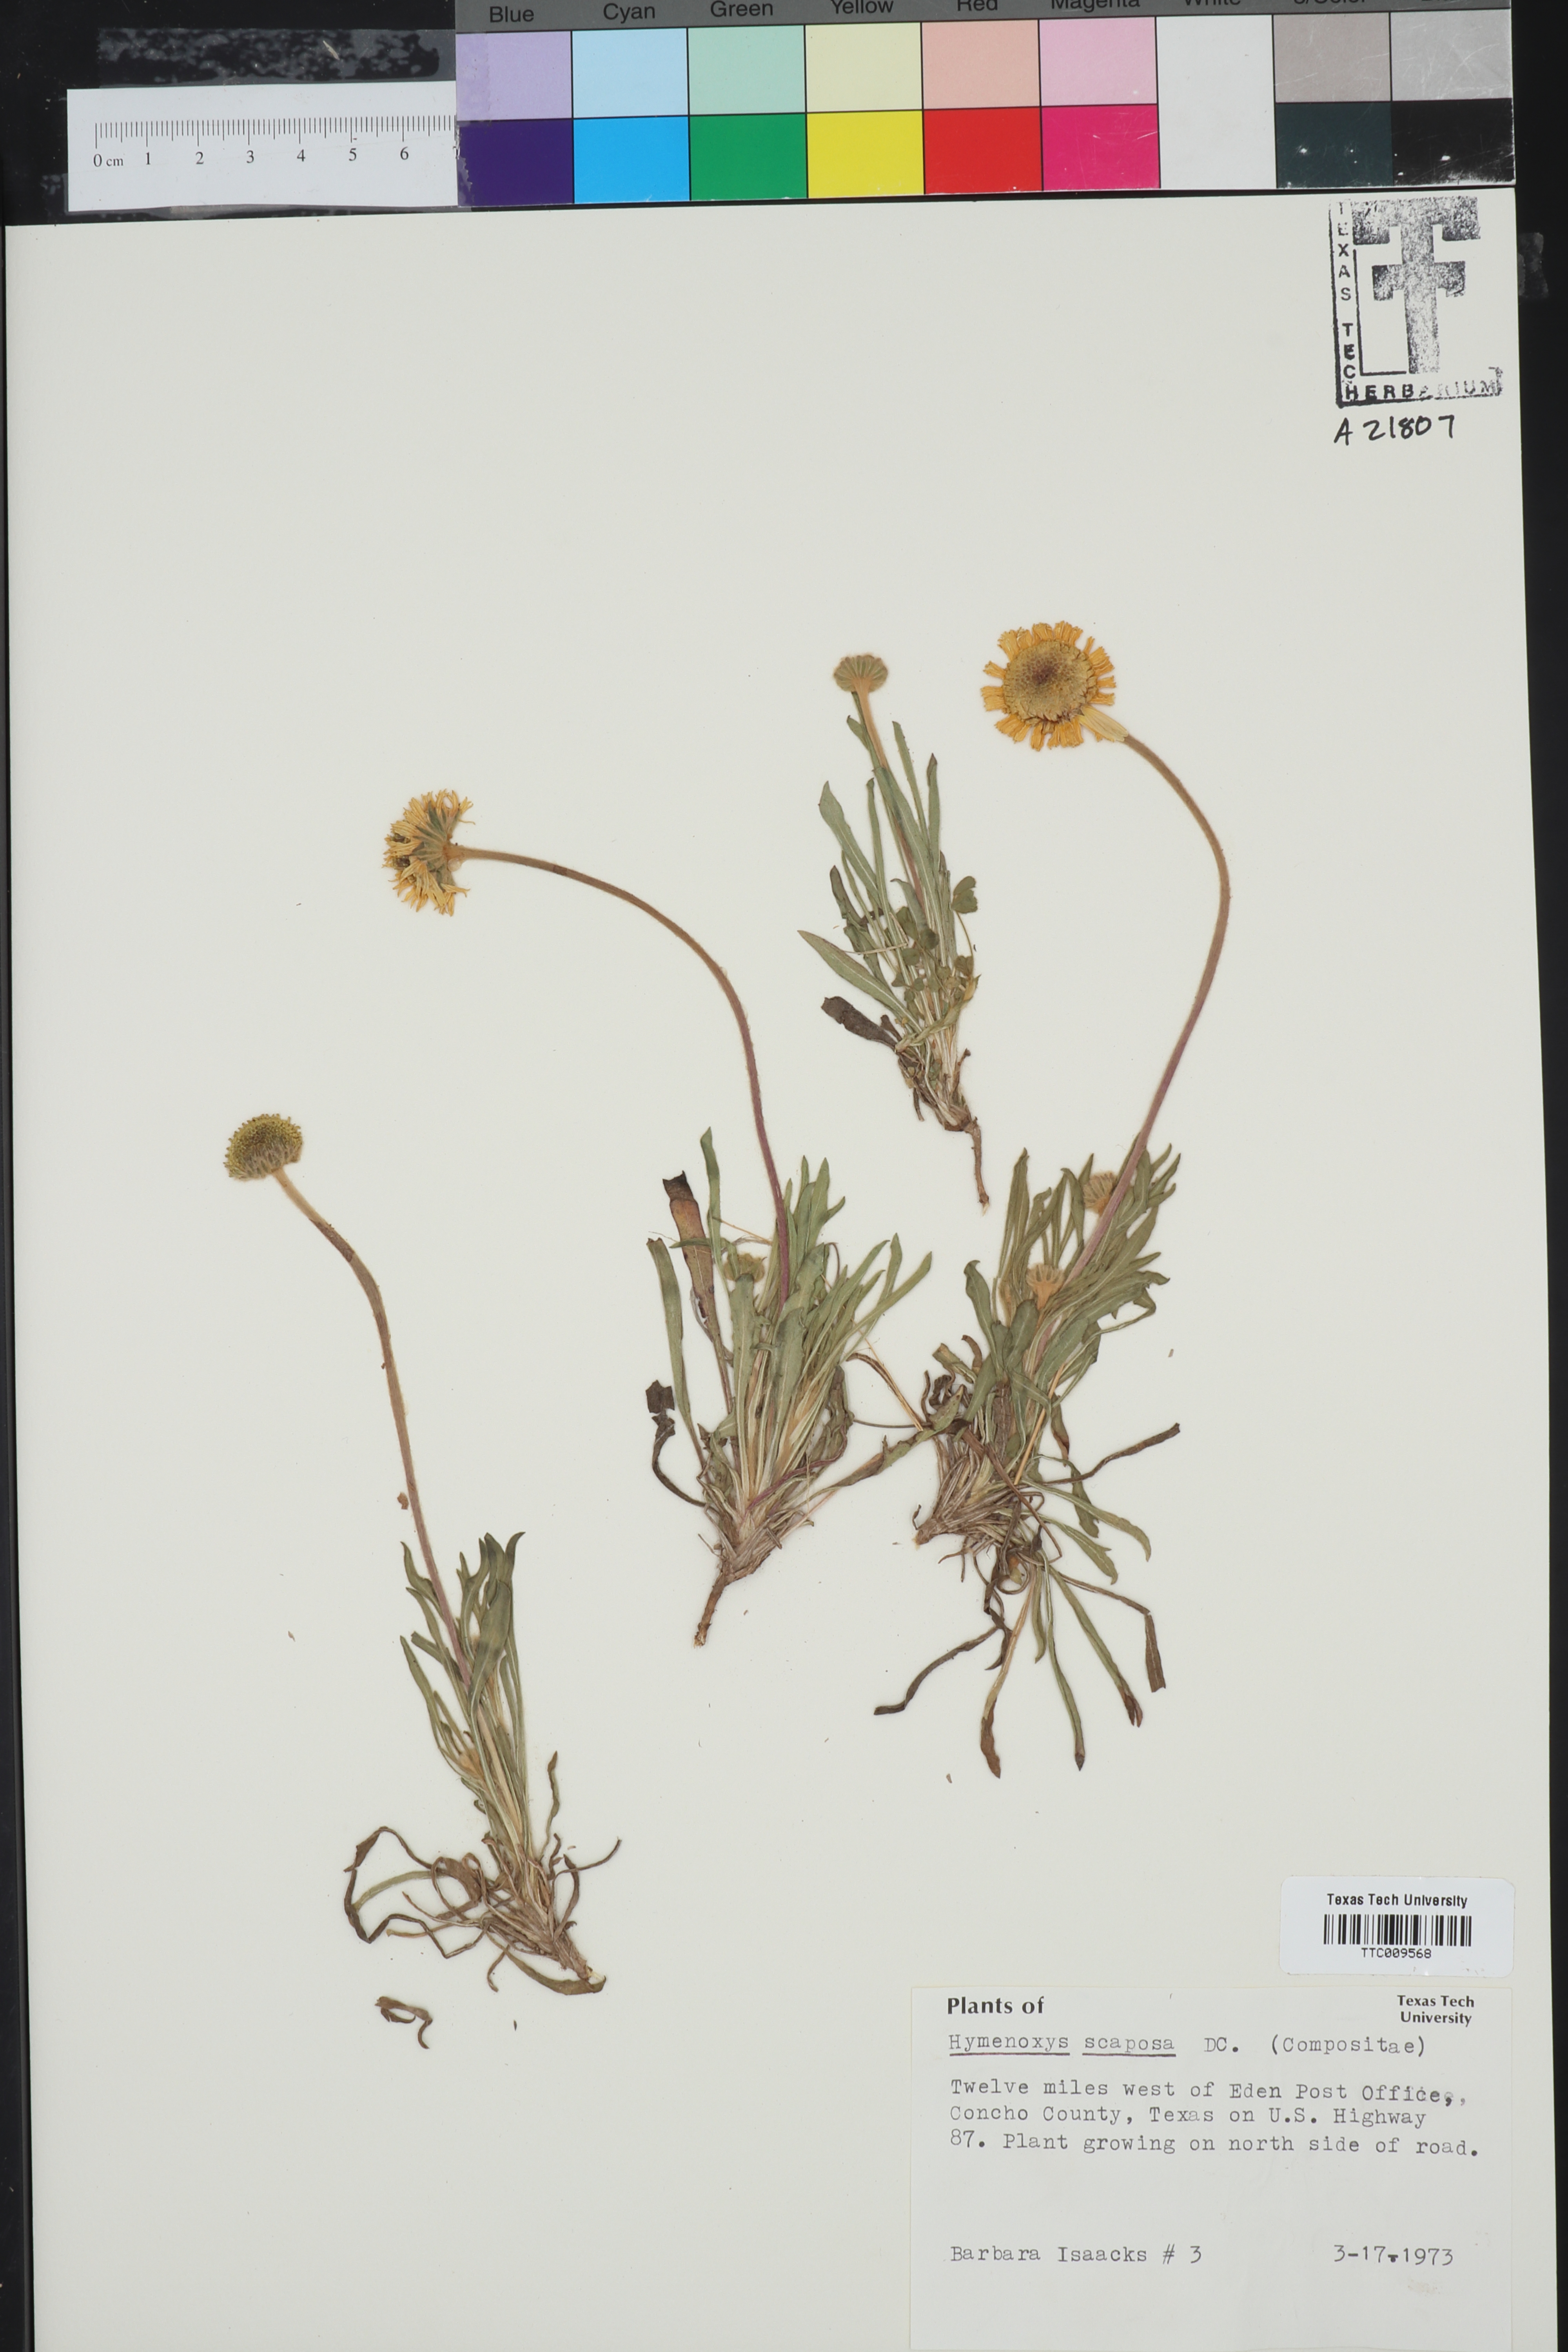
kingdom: Plantae
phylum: Tracheophyta
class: Magnoliopsida
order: Asterales
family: Asteraceae
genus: Tetraneuris
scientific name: Tetraneuris scaposa
